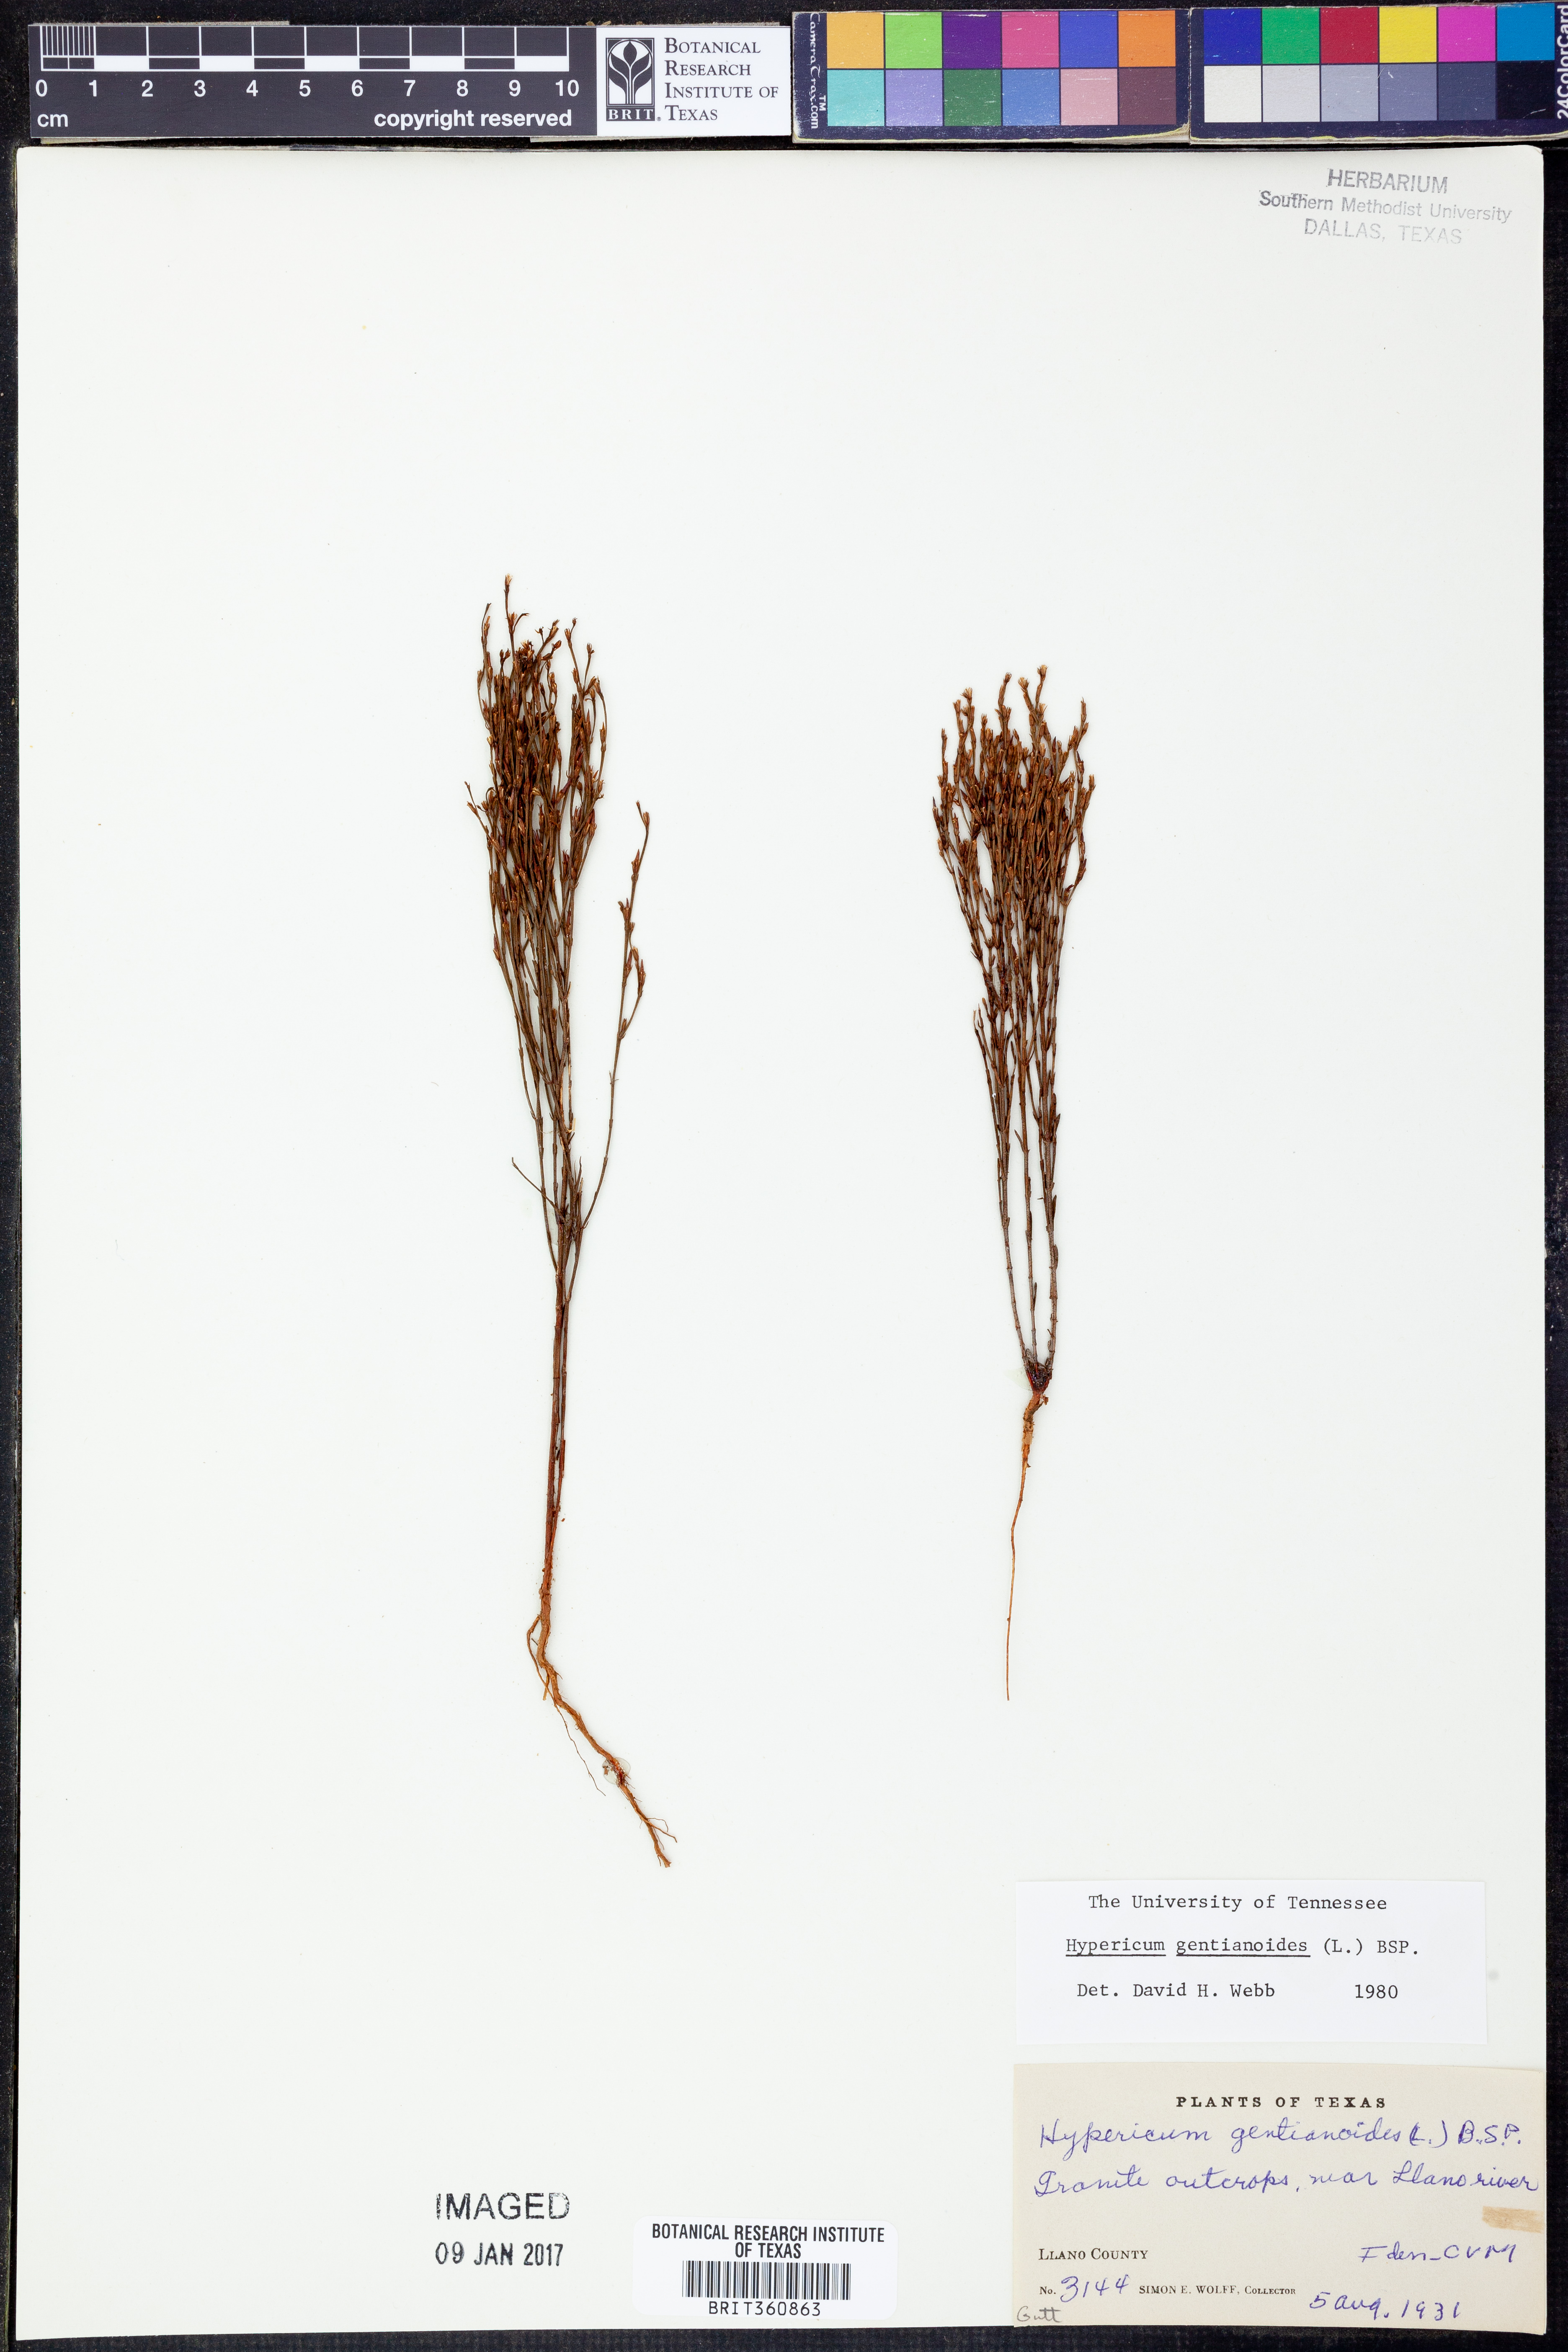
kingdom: Plantae
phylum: Tracheophyta
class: Magnoliopsida
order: Malpighiales
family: Hypericaceae
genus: Hypericum
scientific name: Hypericum gentianoides
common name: Gentian-leaved st. john's-wort
